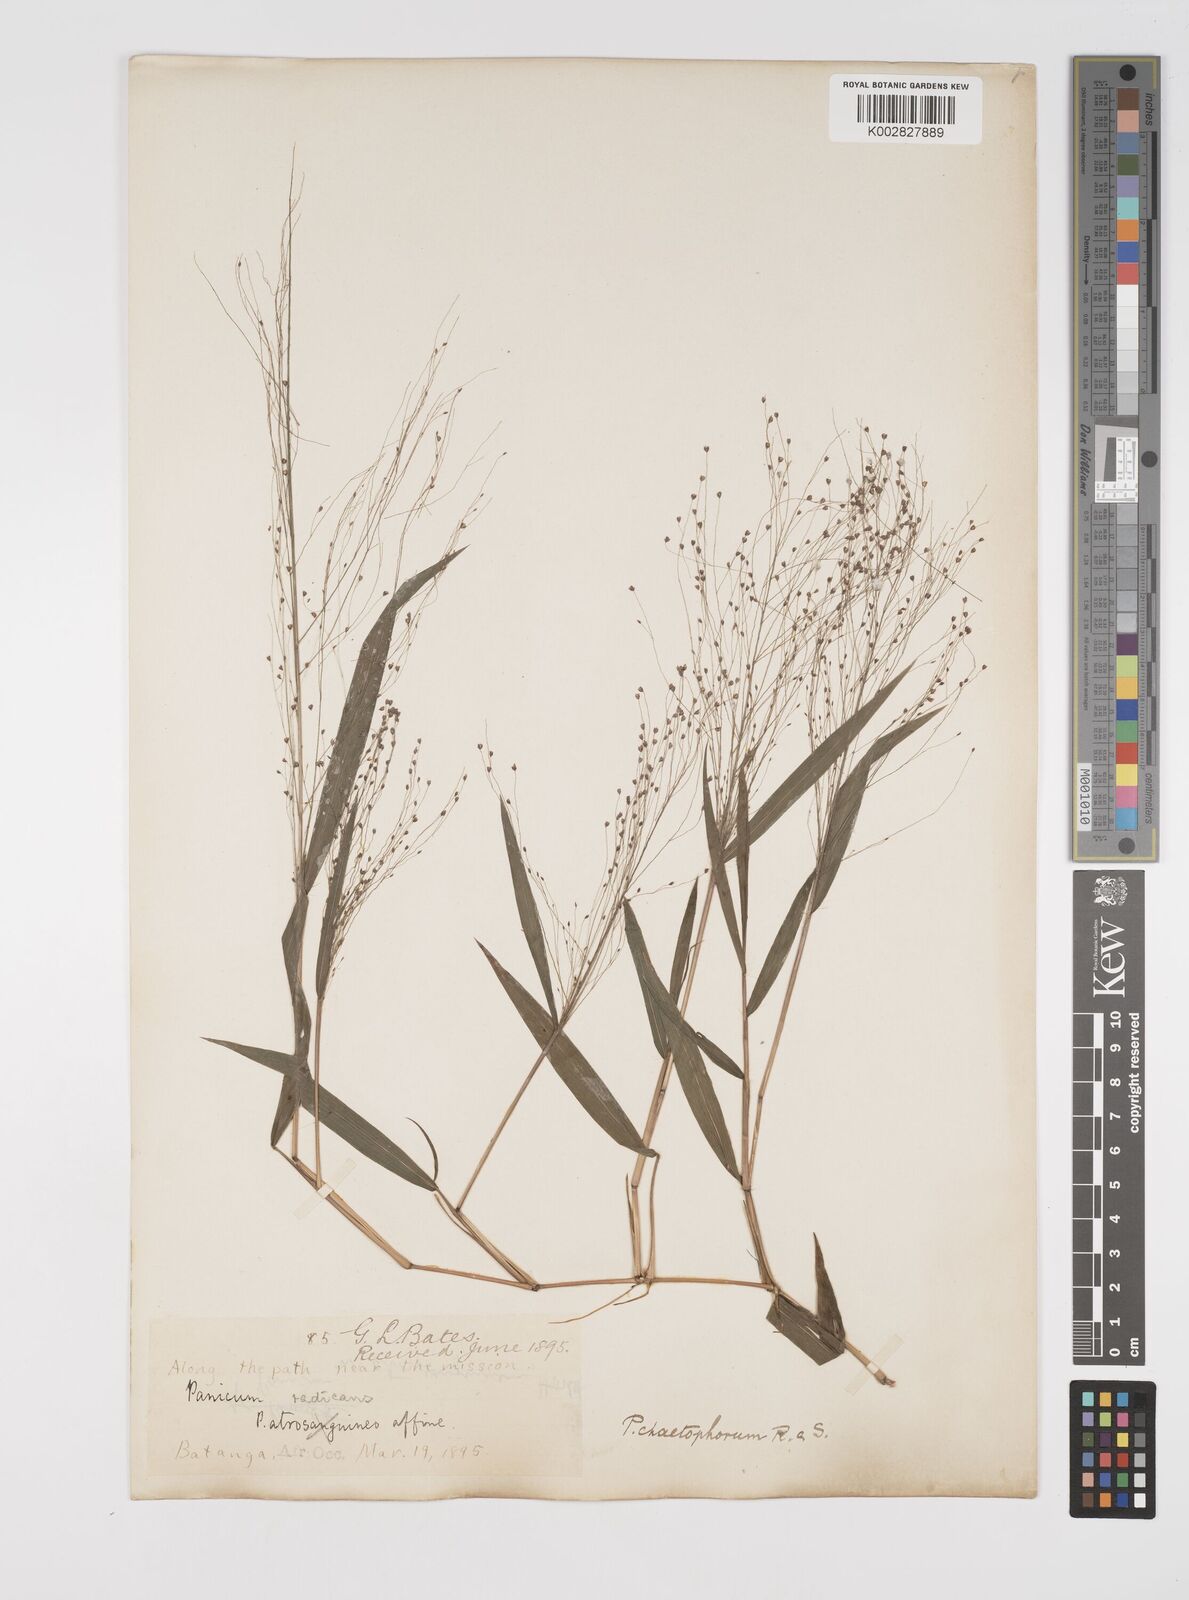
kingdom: Plantae
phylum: Tracheophyta
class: Liliopsida
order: Poales
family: Poaceae
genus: Cyrtococcum
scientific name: Cyrtococcum chaetophoron
